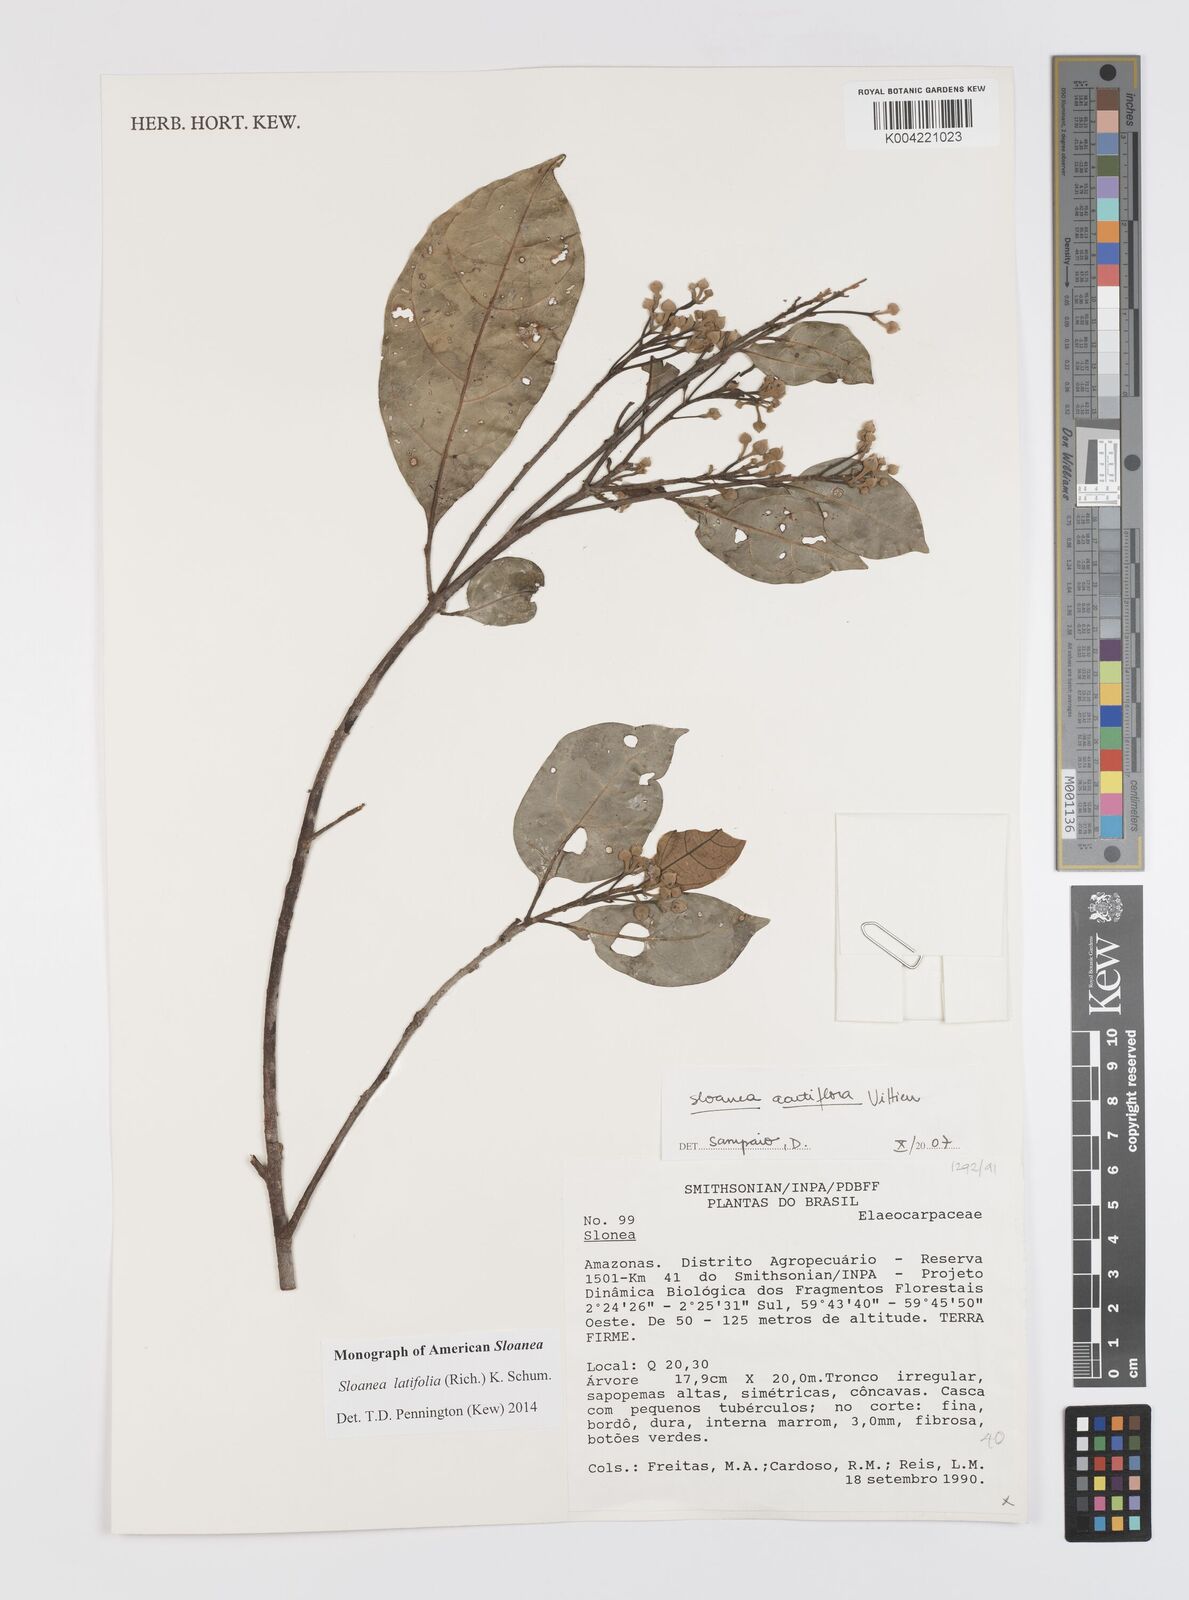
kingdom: Plantae
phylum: Tracheophyta
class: Magnoliopsida
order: Oxalidales
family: Elaeocarpaceae
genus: Sloanea
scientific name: Sloanea latifolia
